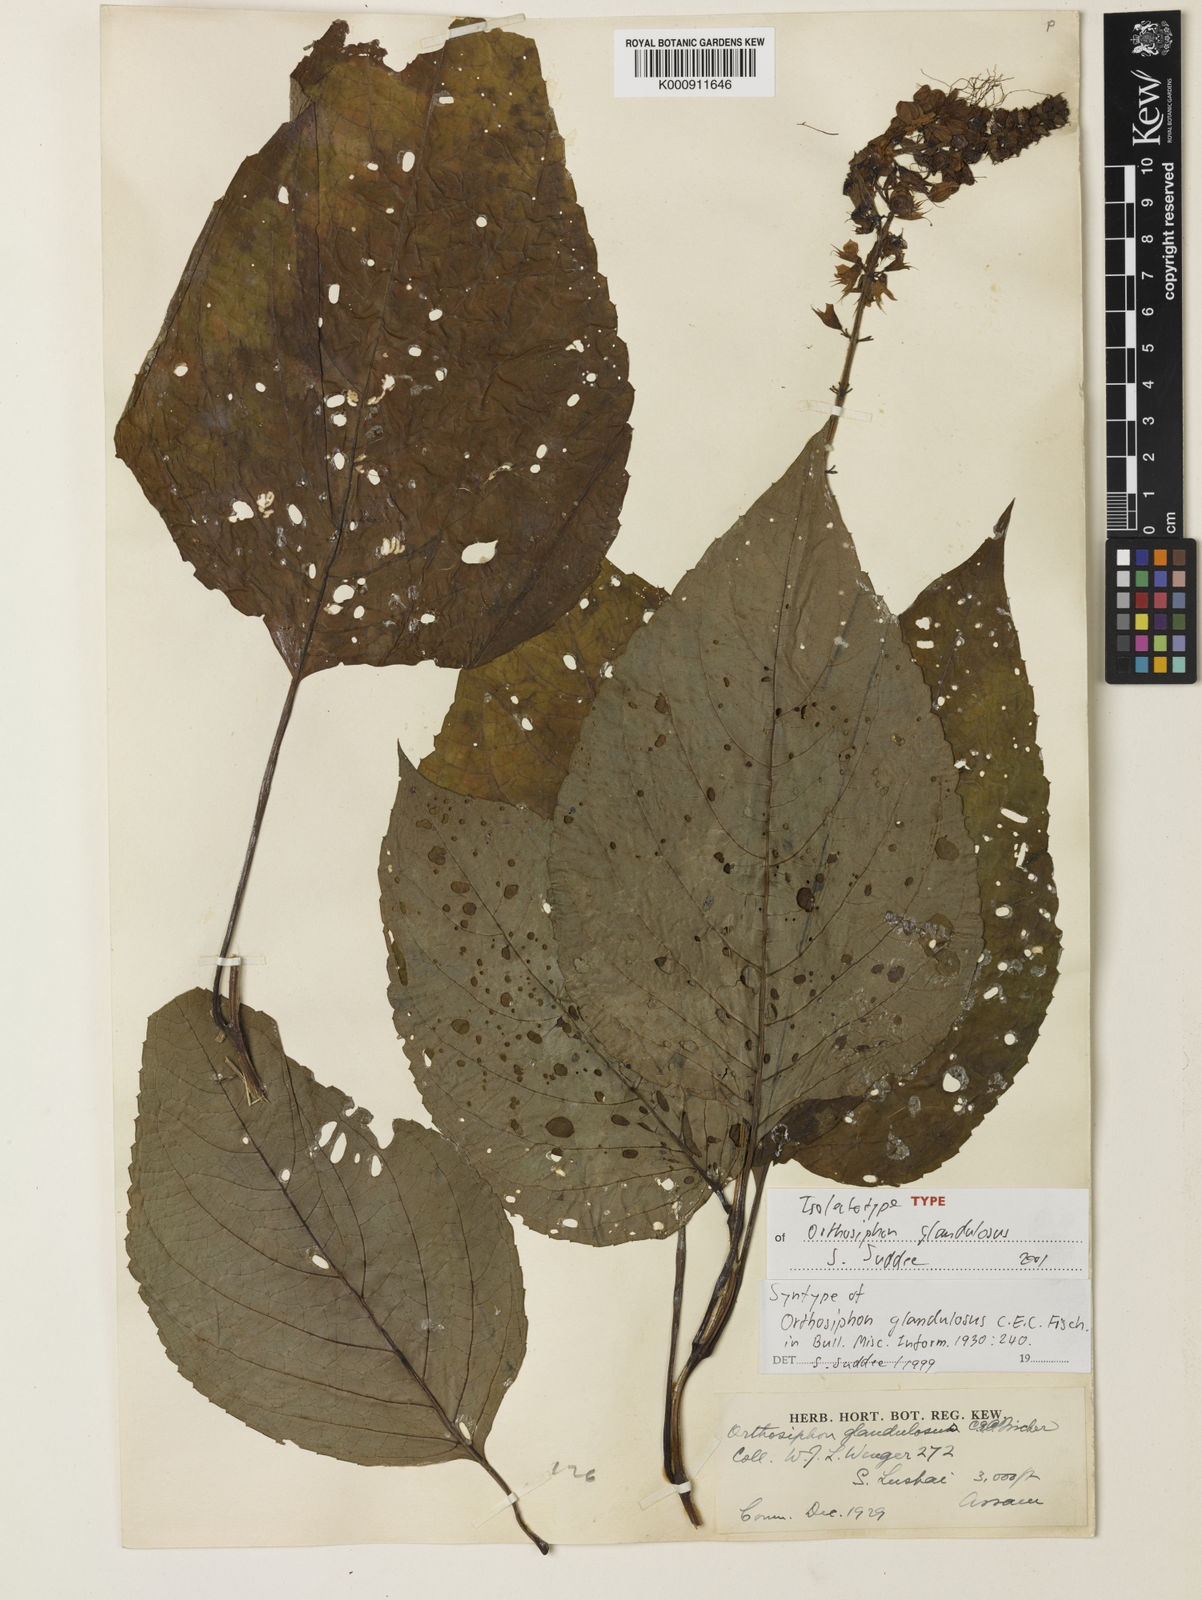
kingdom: Plantae
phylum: Tracheophyta
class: Magnoliopsida
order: Lamiales
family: Lamiaceae
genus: Orthosiphon
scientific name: Orthosiphon glandulosus
